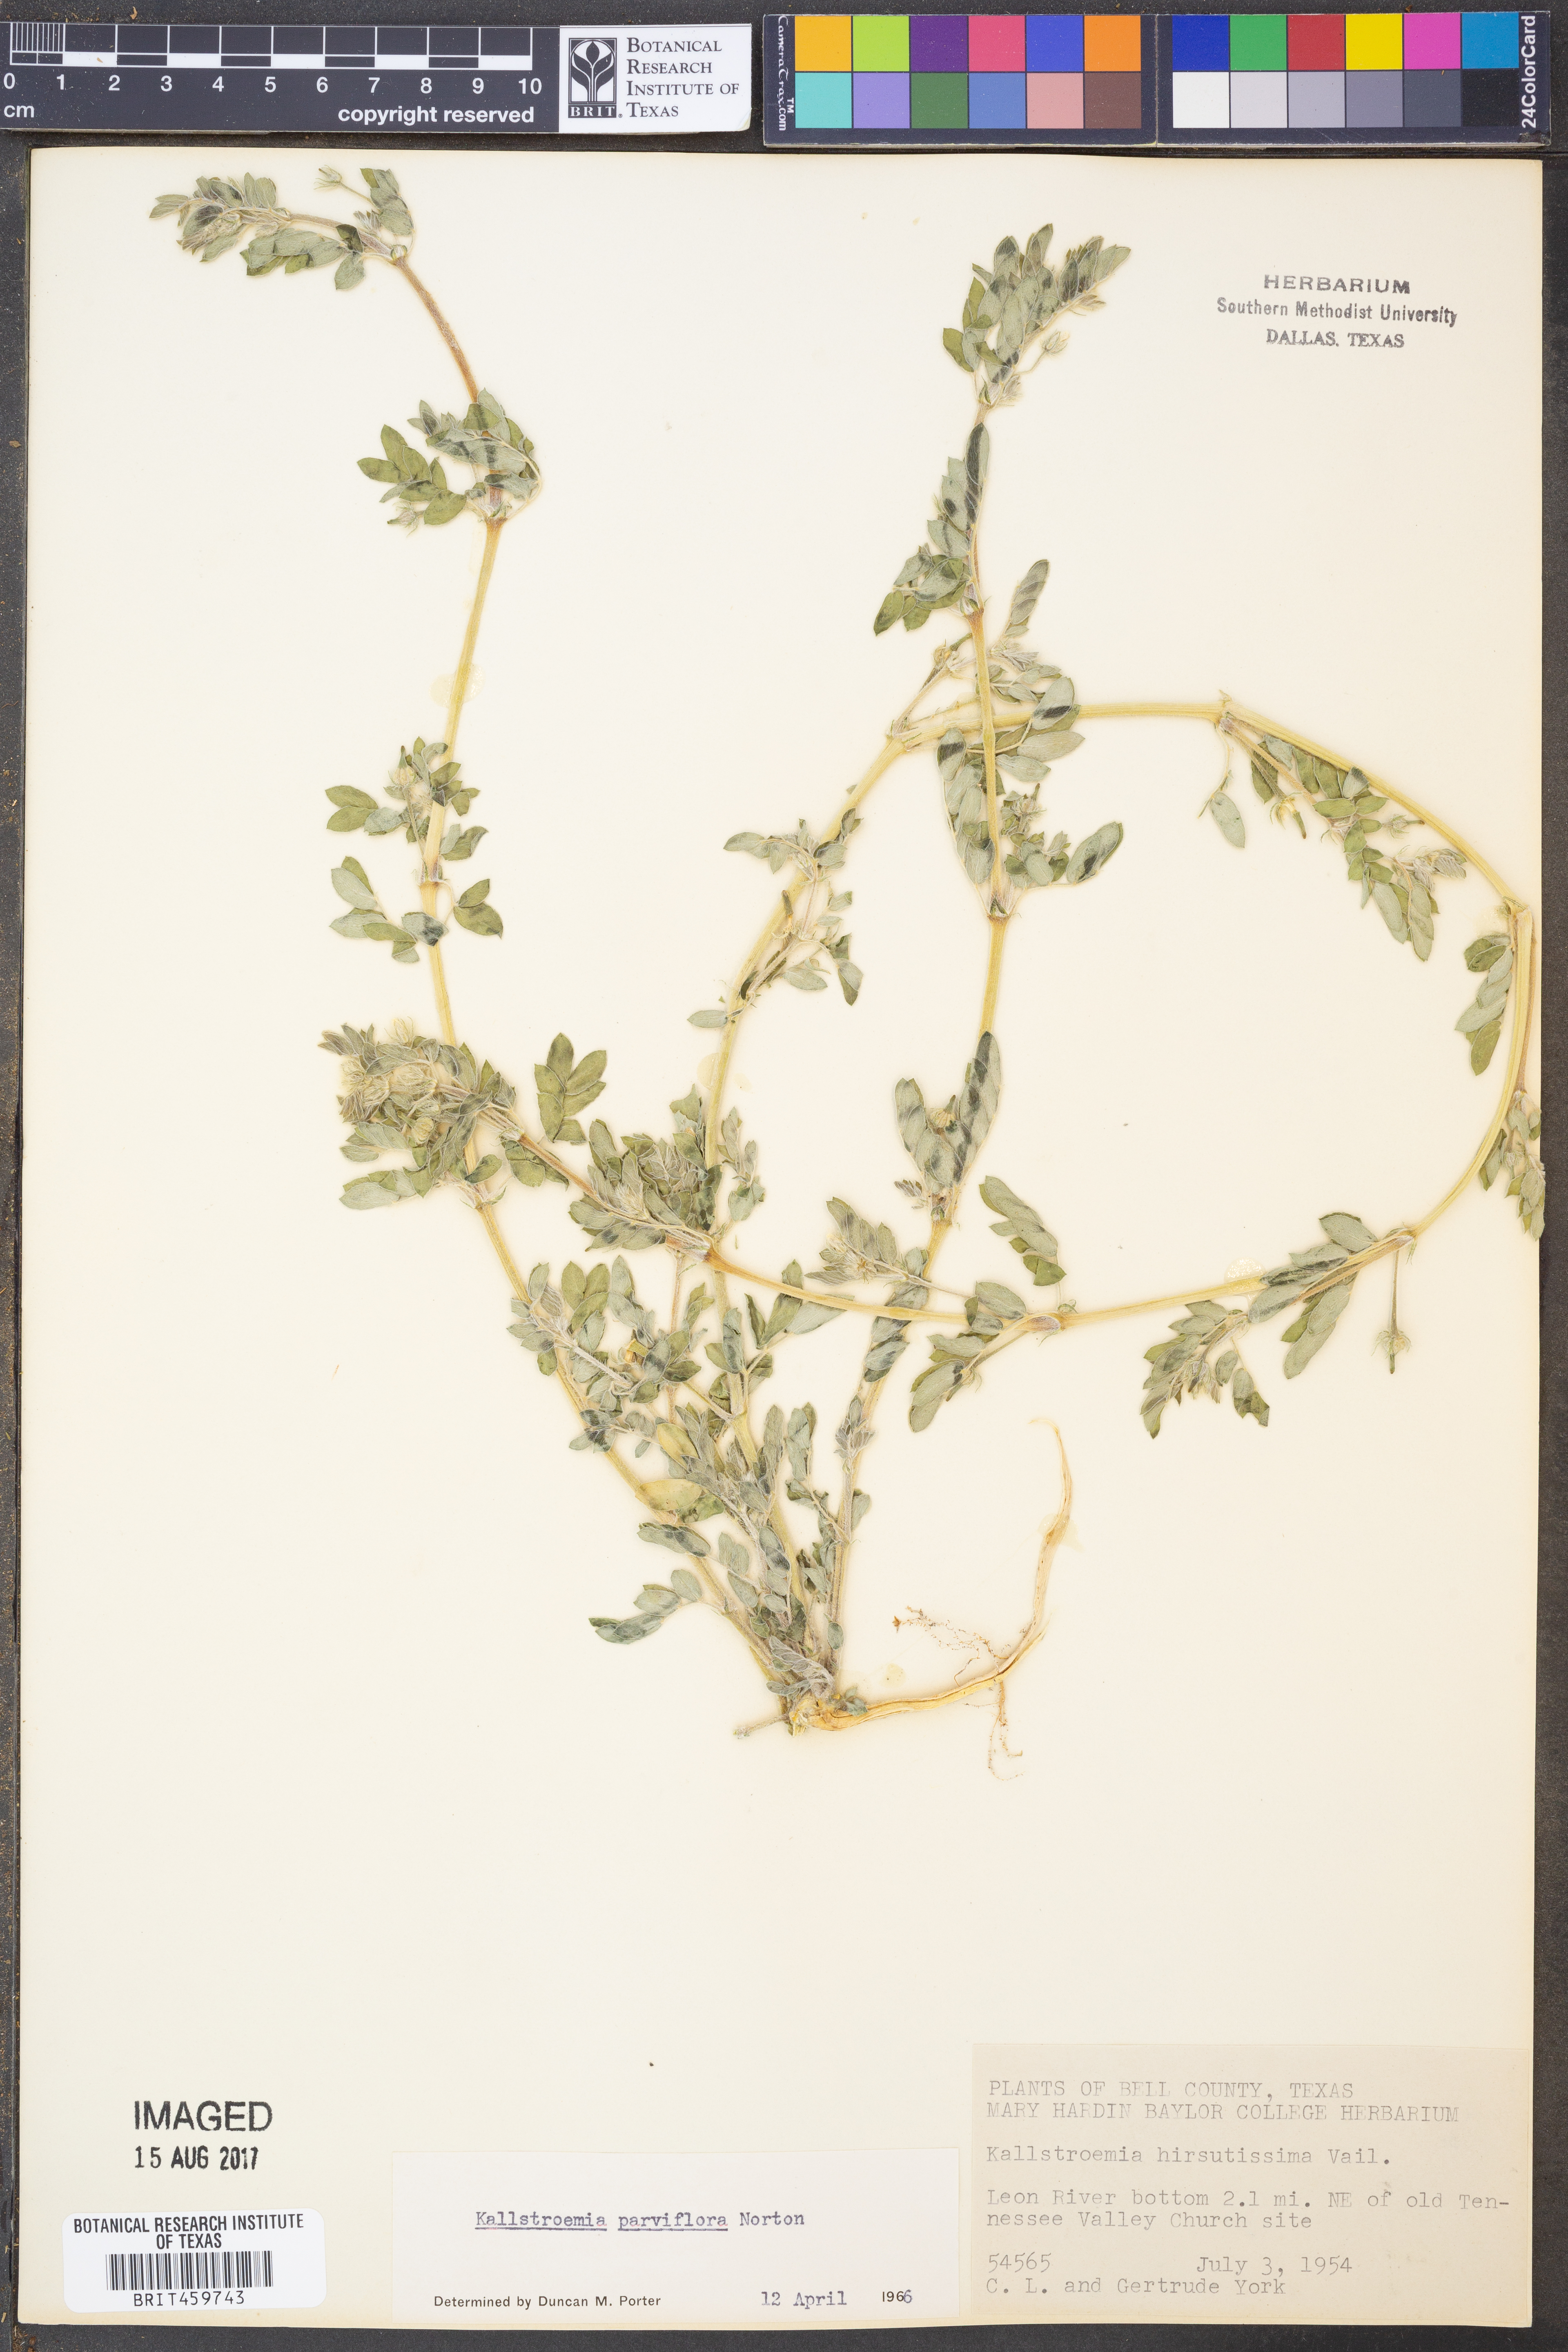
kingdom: Plantae
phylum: Tracheophyta
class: Magnoliopsida
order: Zygophyllales
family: Zygophyllaceae
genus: Kallstroemia
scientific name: Kallstroemia parviflora
